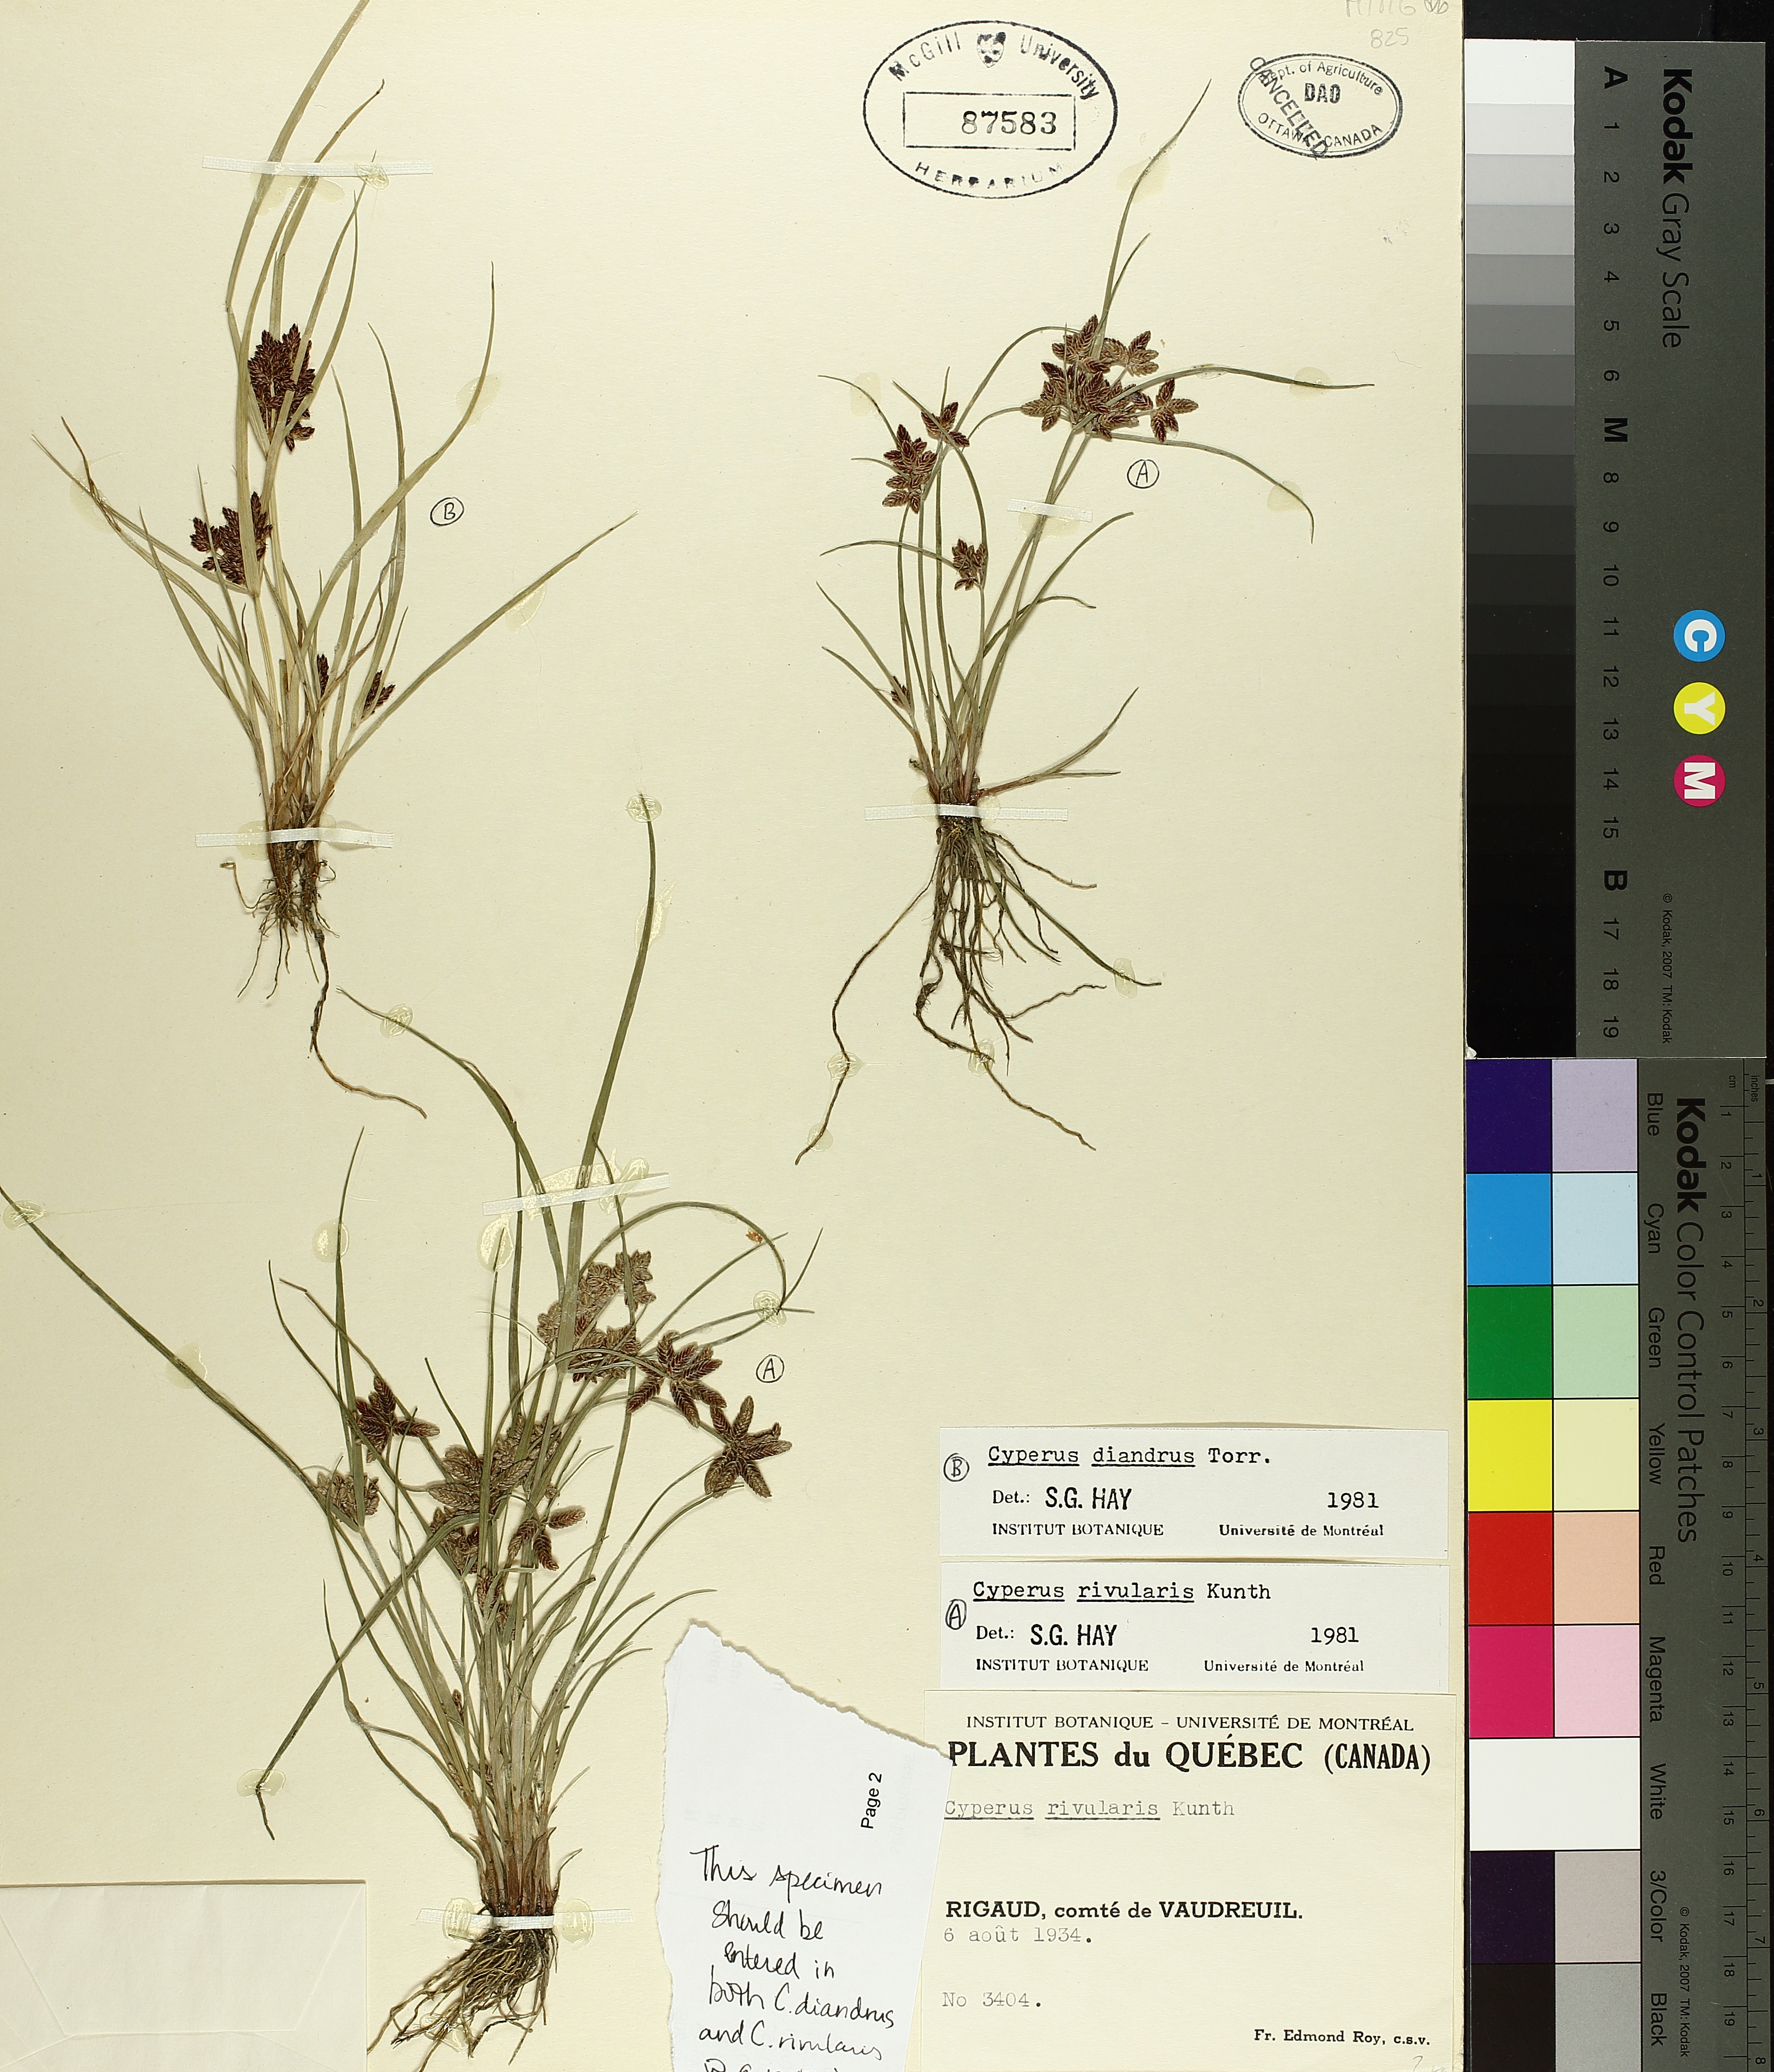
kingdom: Plantae
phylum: Tracheophyta
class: Liliopsida
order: Poales
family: Cyperaceae
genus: Cyperus
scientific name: Cyperus bipartitus
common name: Brook flatsedge
